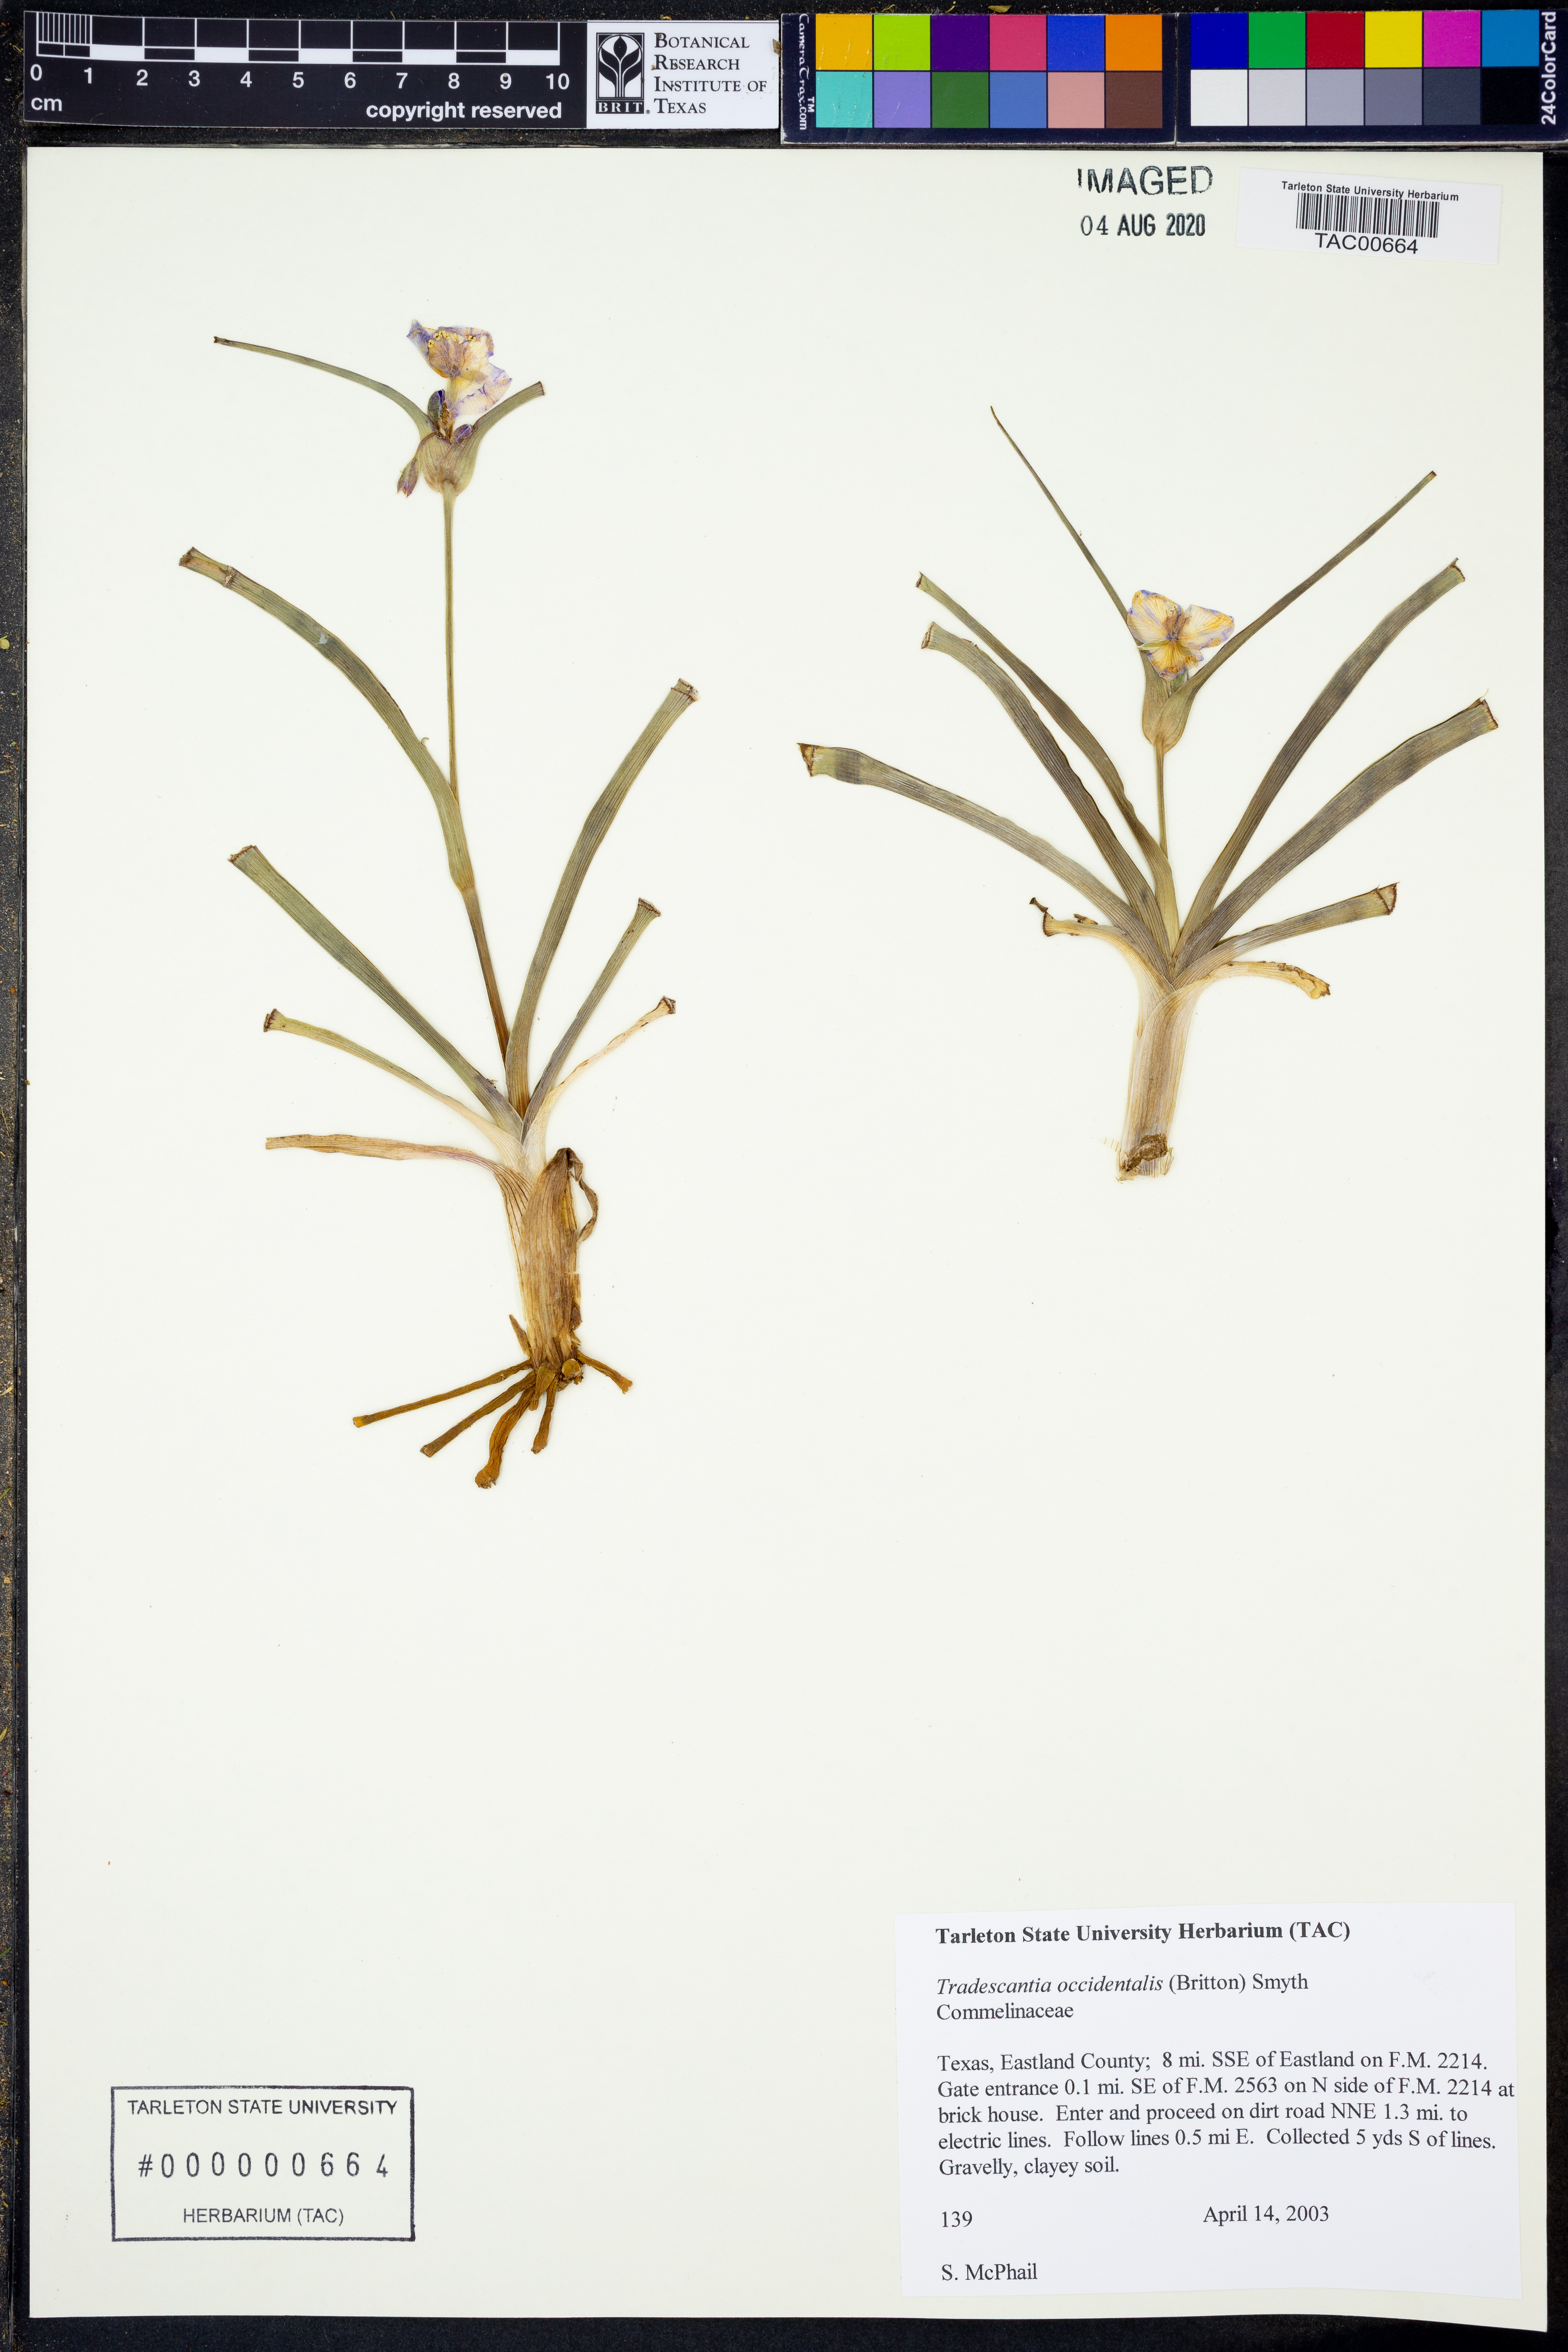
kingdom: Plantae
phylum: Tracheophyta
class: Liliopsida
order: Commelinales
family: Commelinaceae
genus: Tradescantia
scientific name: Tradescantia occidentalis
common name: Prairie spiderwort
